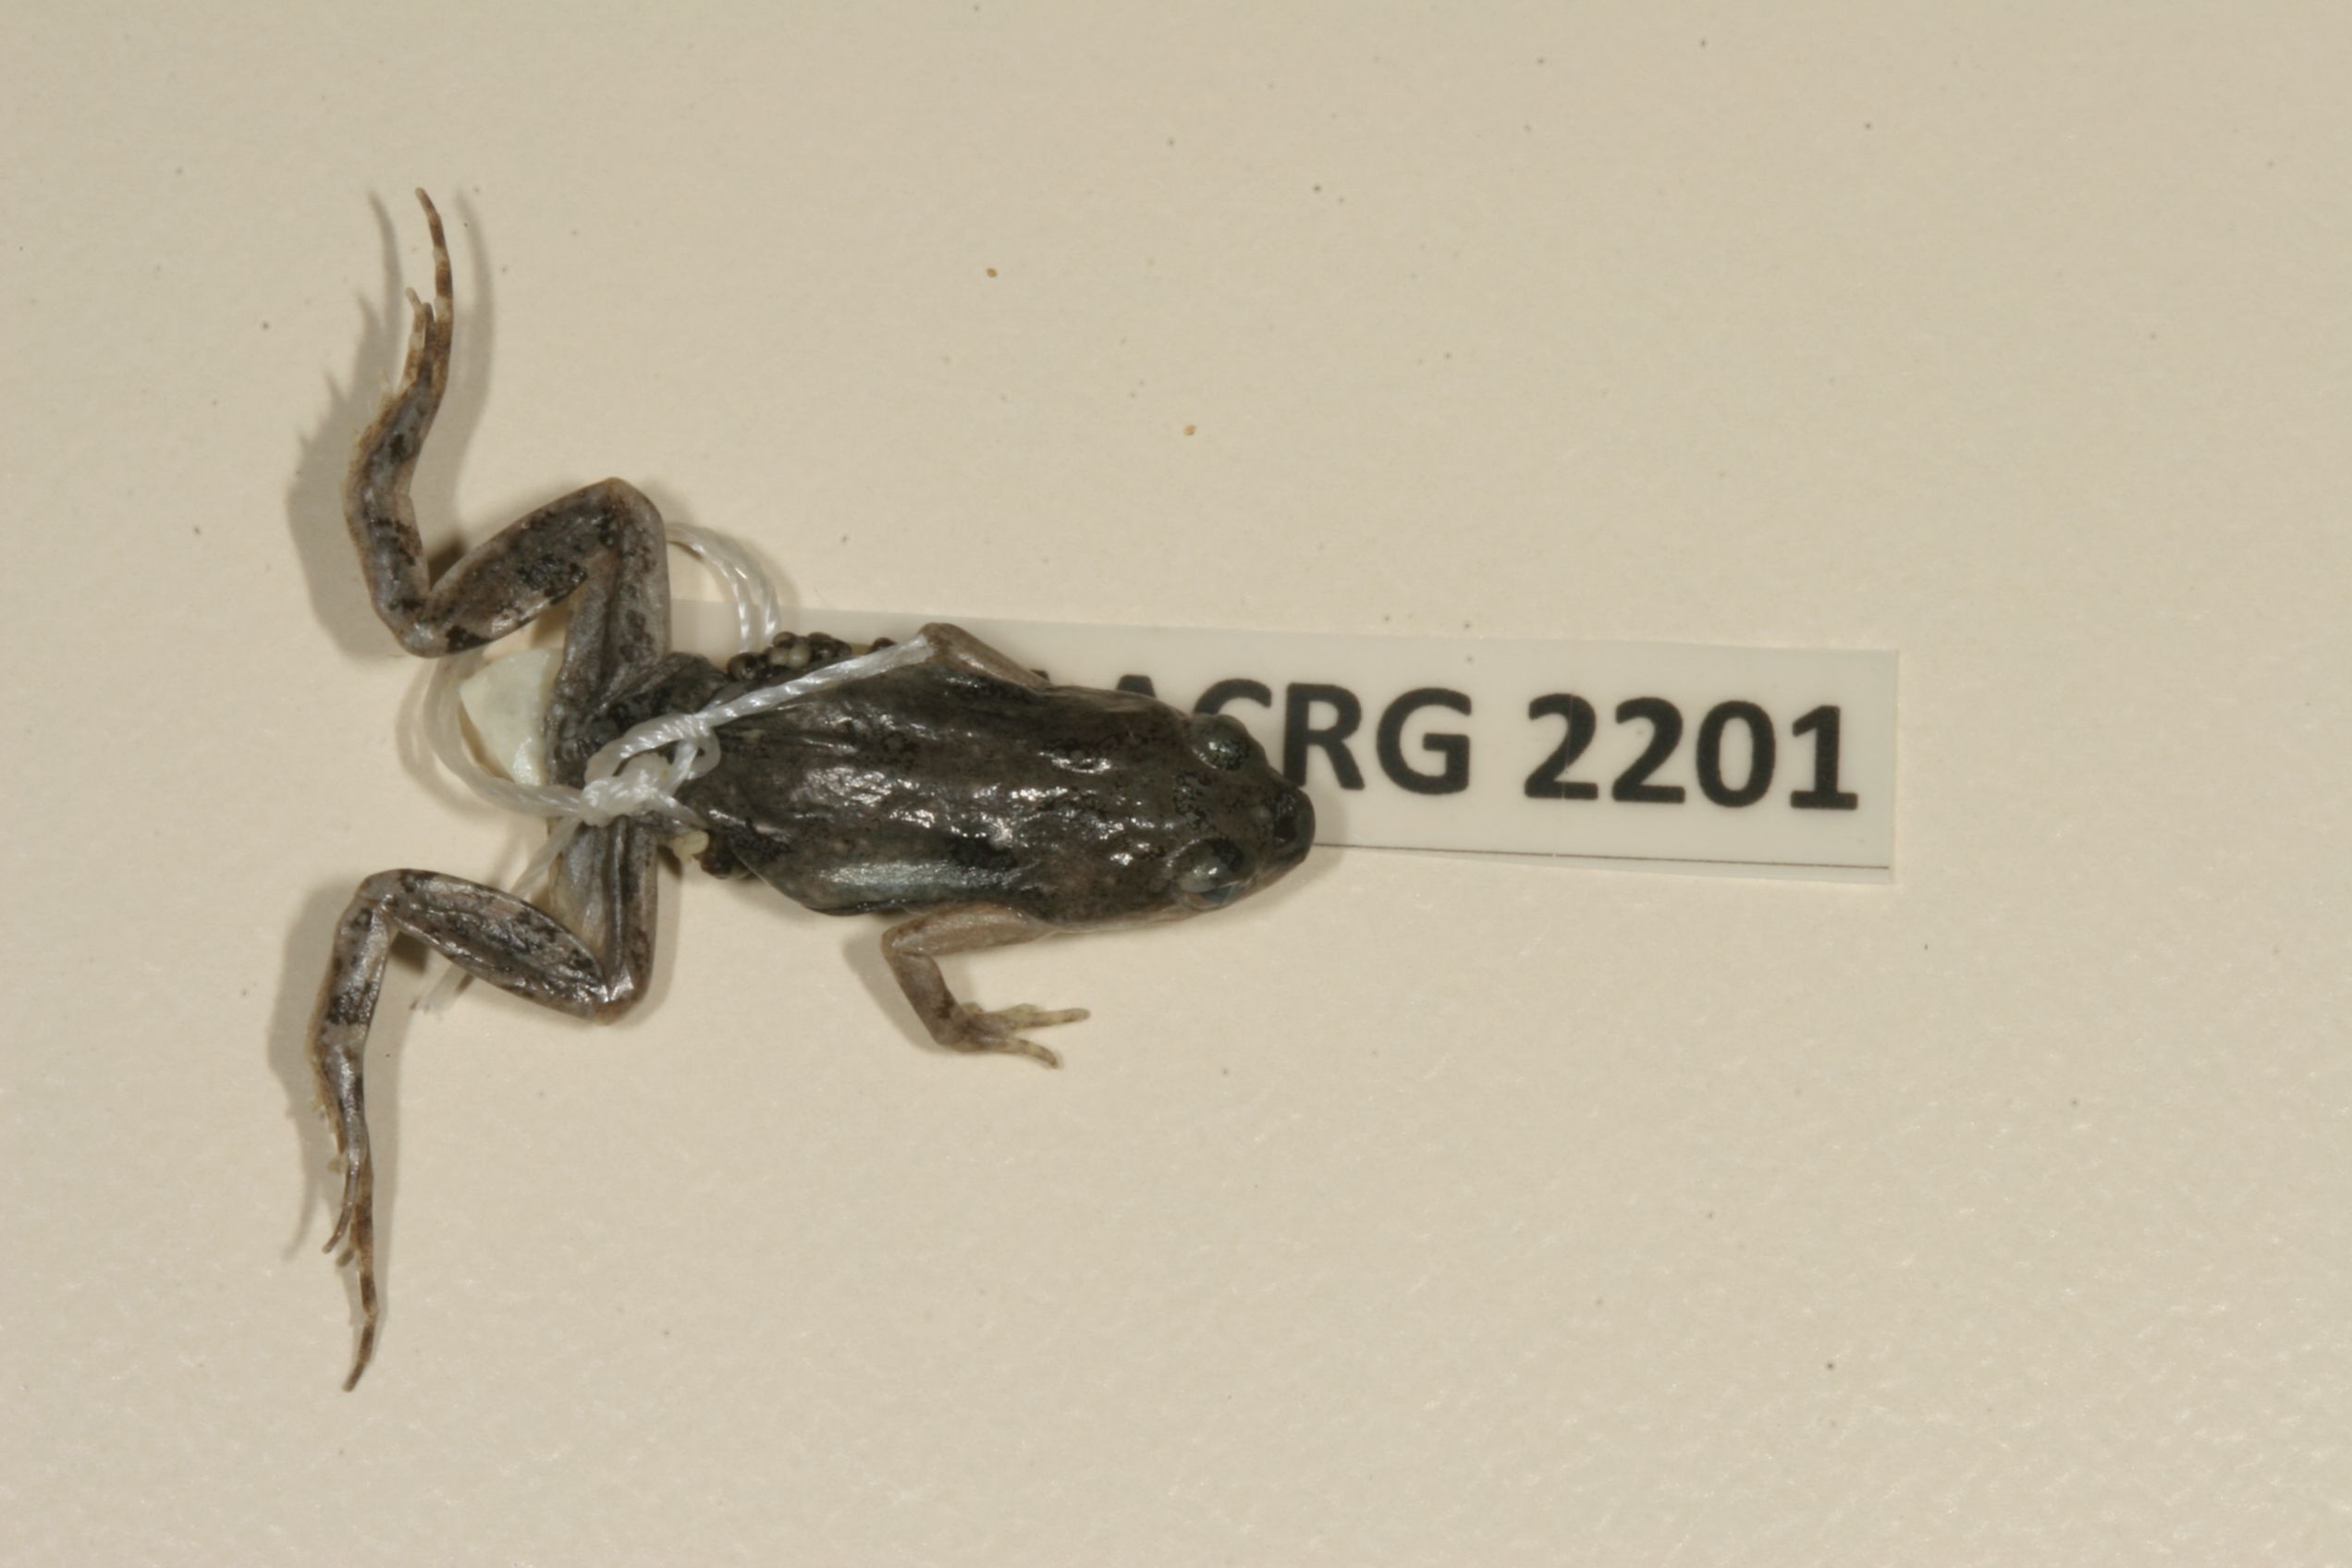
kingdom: Animalia
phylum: Chordata
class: Amphibia
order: Anura
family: Pyxicephalidae
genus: Cacosternum
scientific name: Cacosternum boettgeri
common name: Boettger's frog
